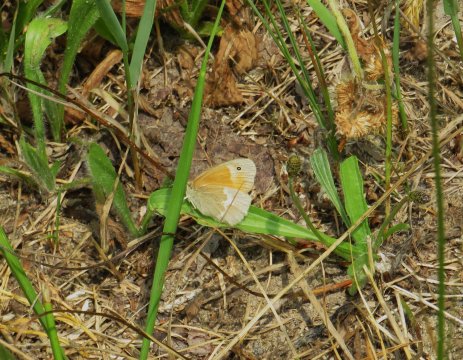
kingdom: Animalia
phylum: Arthropoda
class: Insecta
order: Lepidoptera
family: Nymphalidae
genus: Coenonympha
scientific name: Coenonympha tullia
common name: Large Heath
